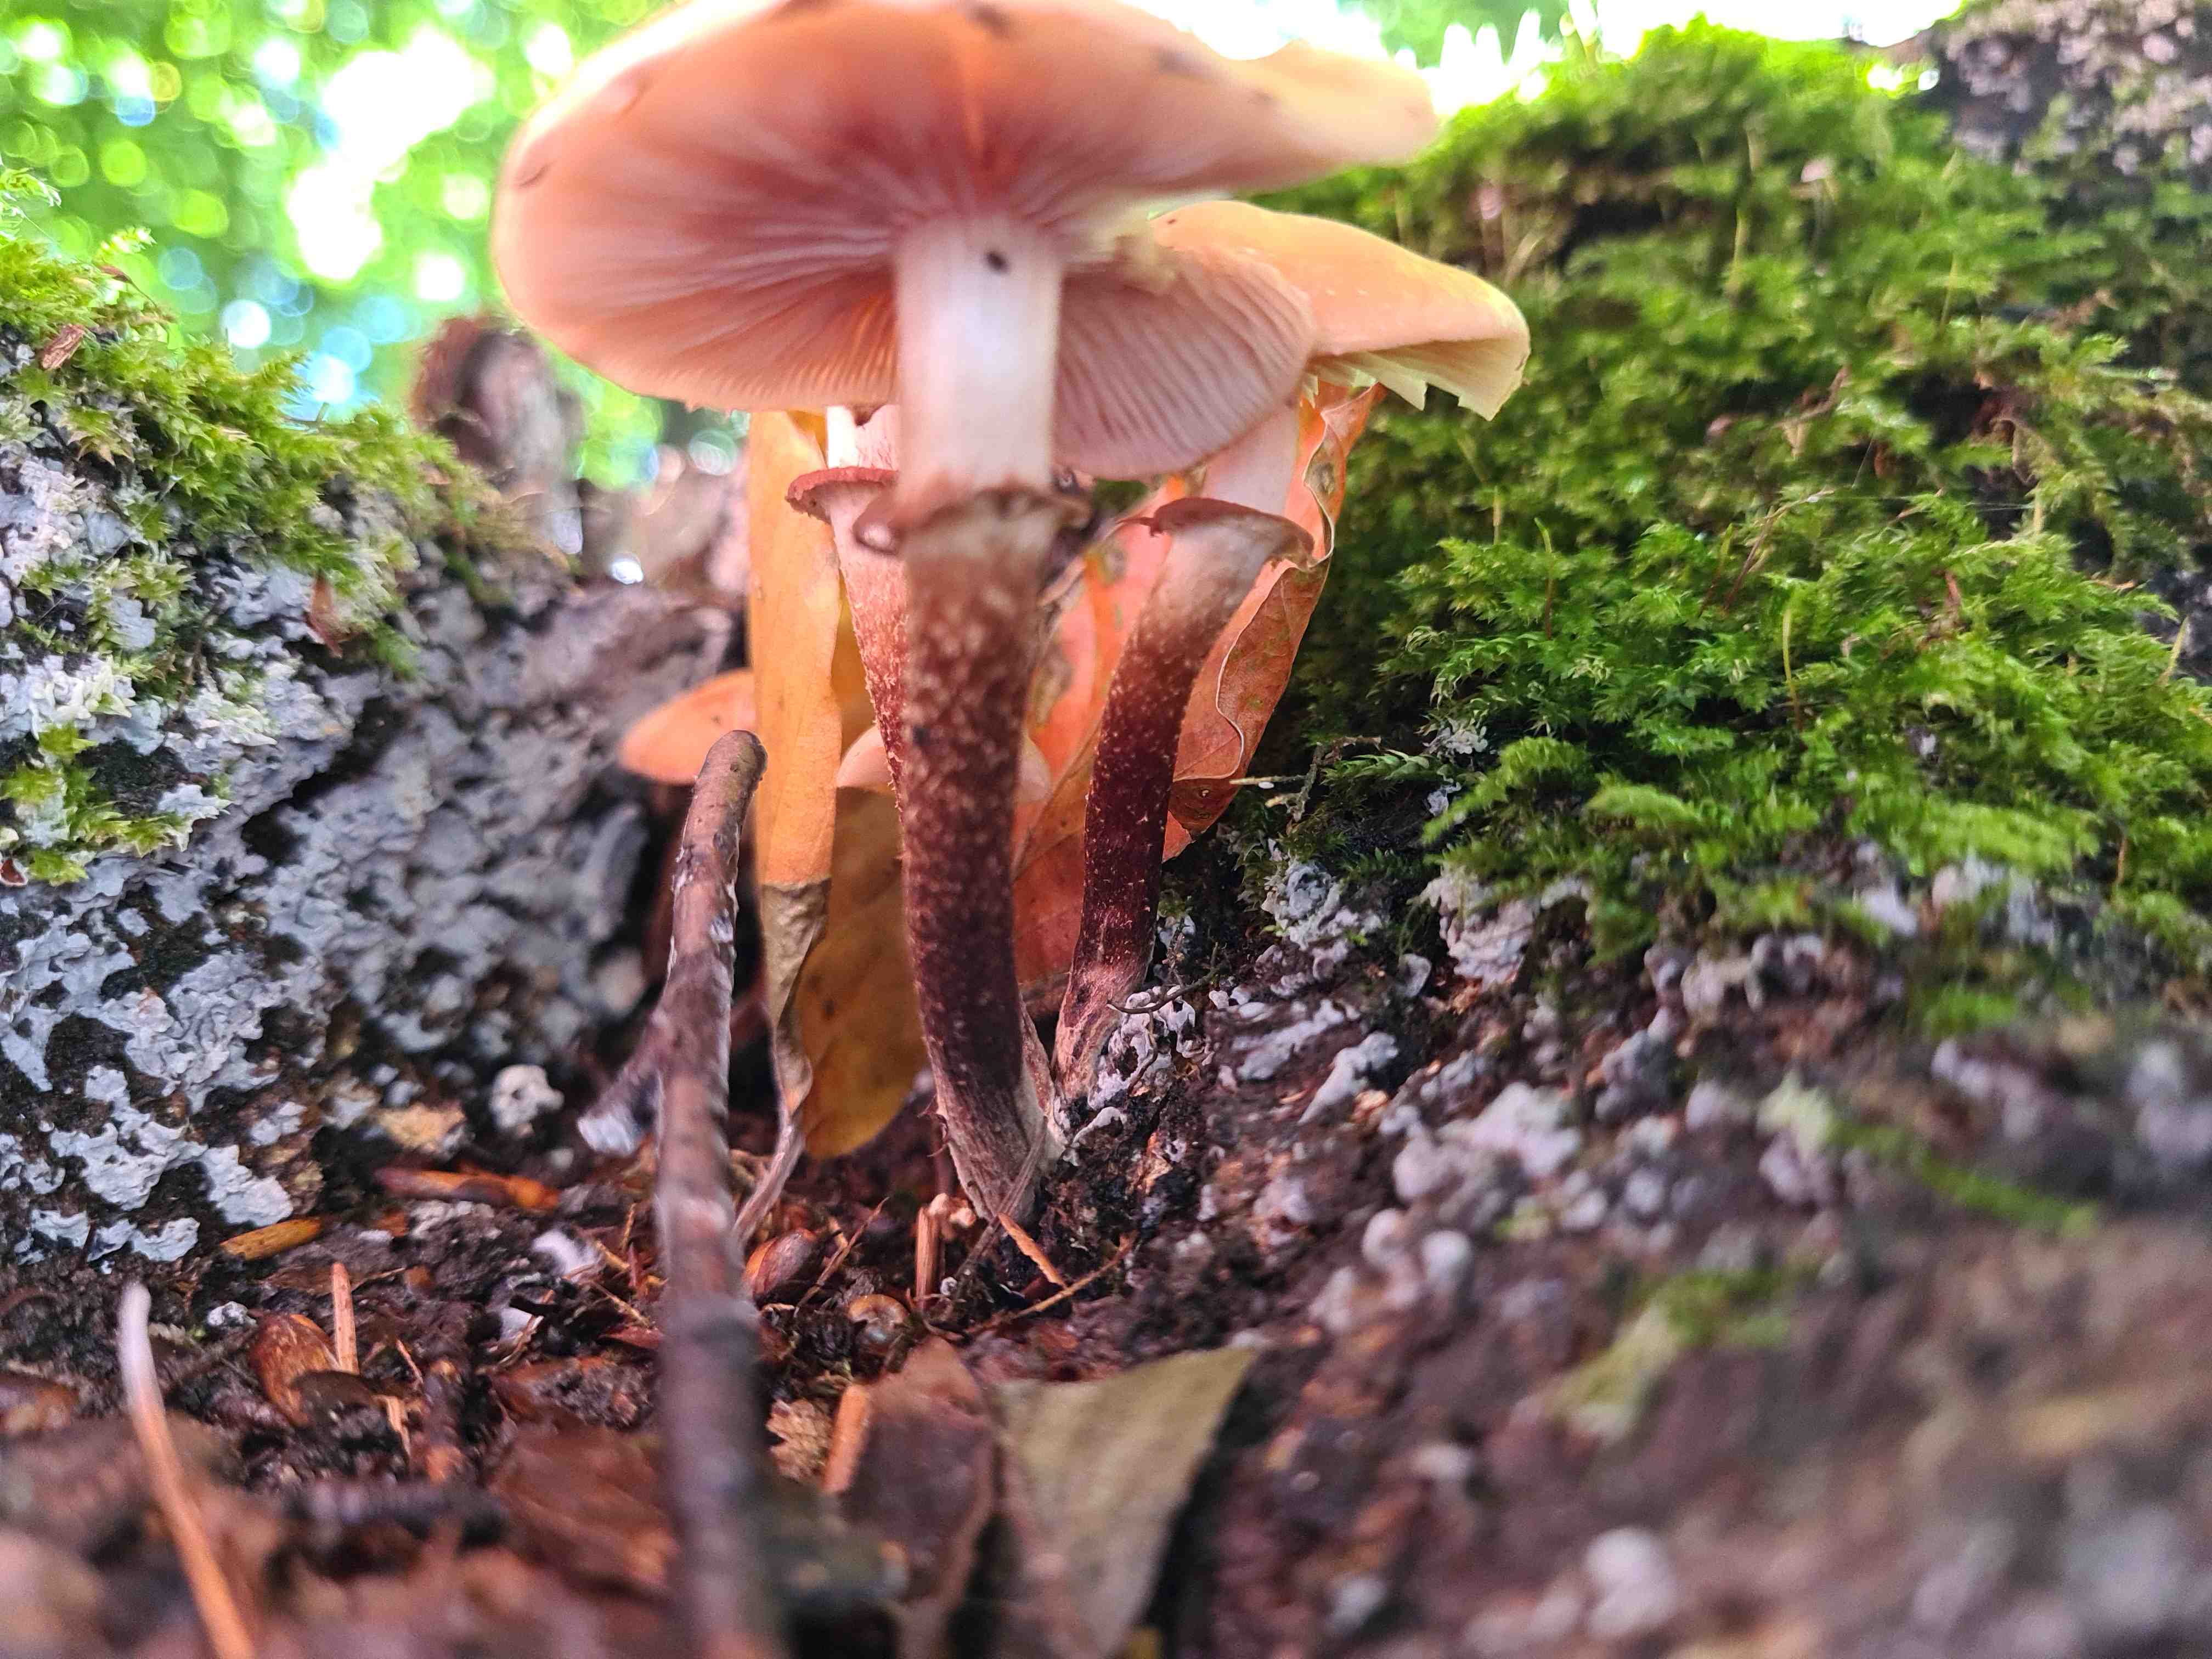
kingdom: Fungi
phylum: Basidiomycota
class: Agaricomycetes
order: Agaricales
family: Strophariaceae
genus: Kuehneromyces
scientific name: Kuehneromyces mutabilis
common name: foranderlig skælhat
